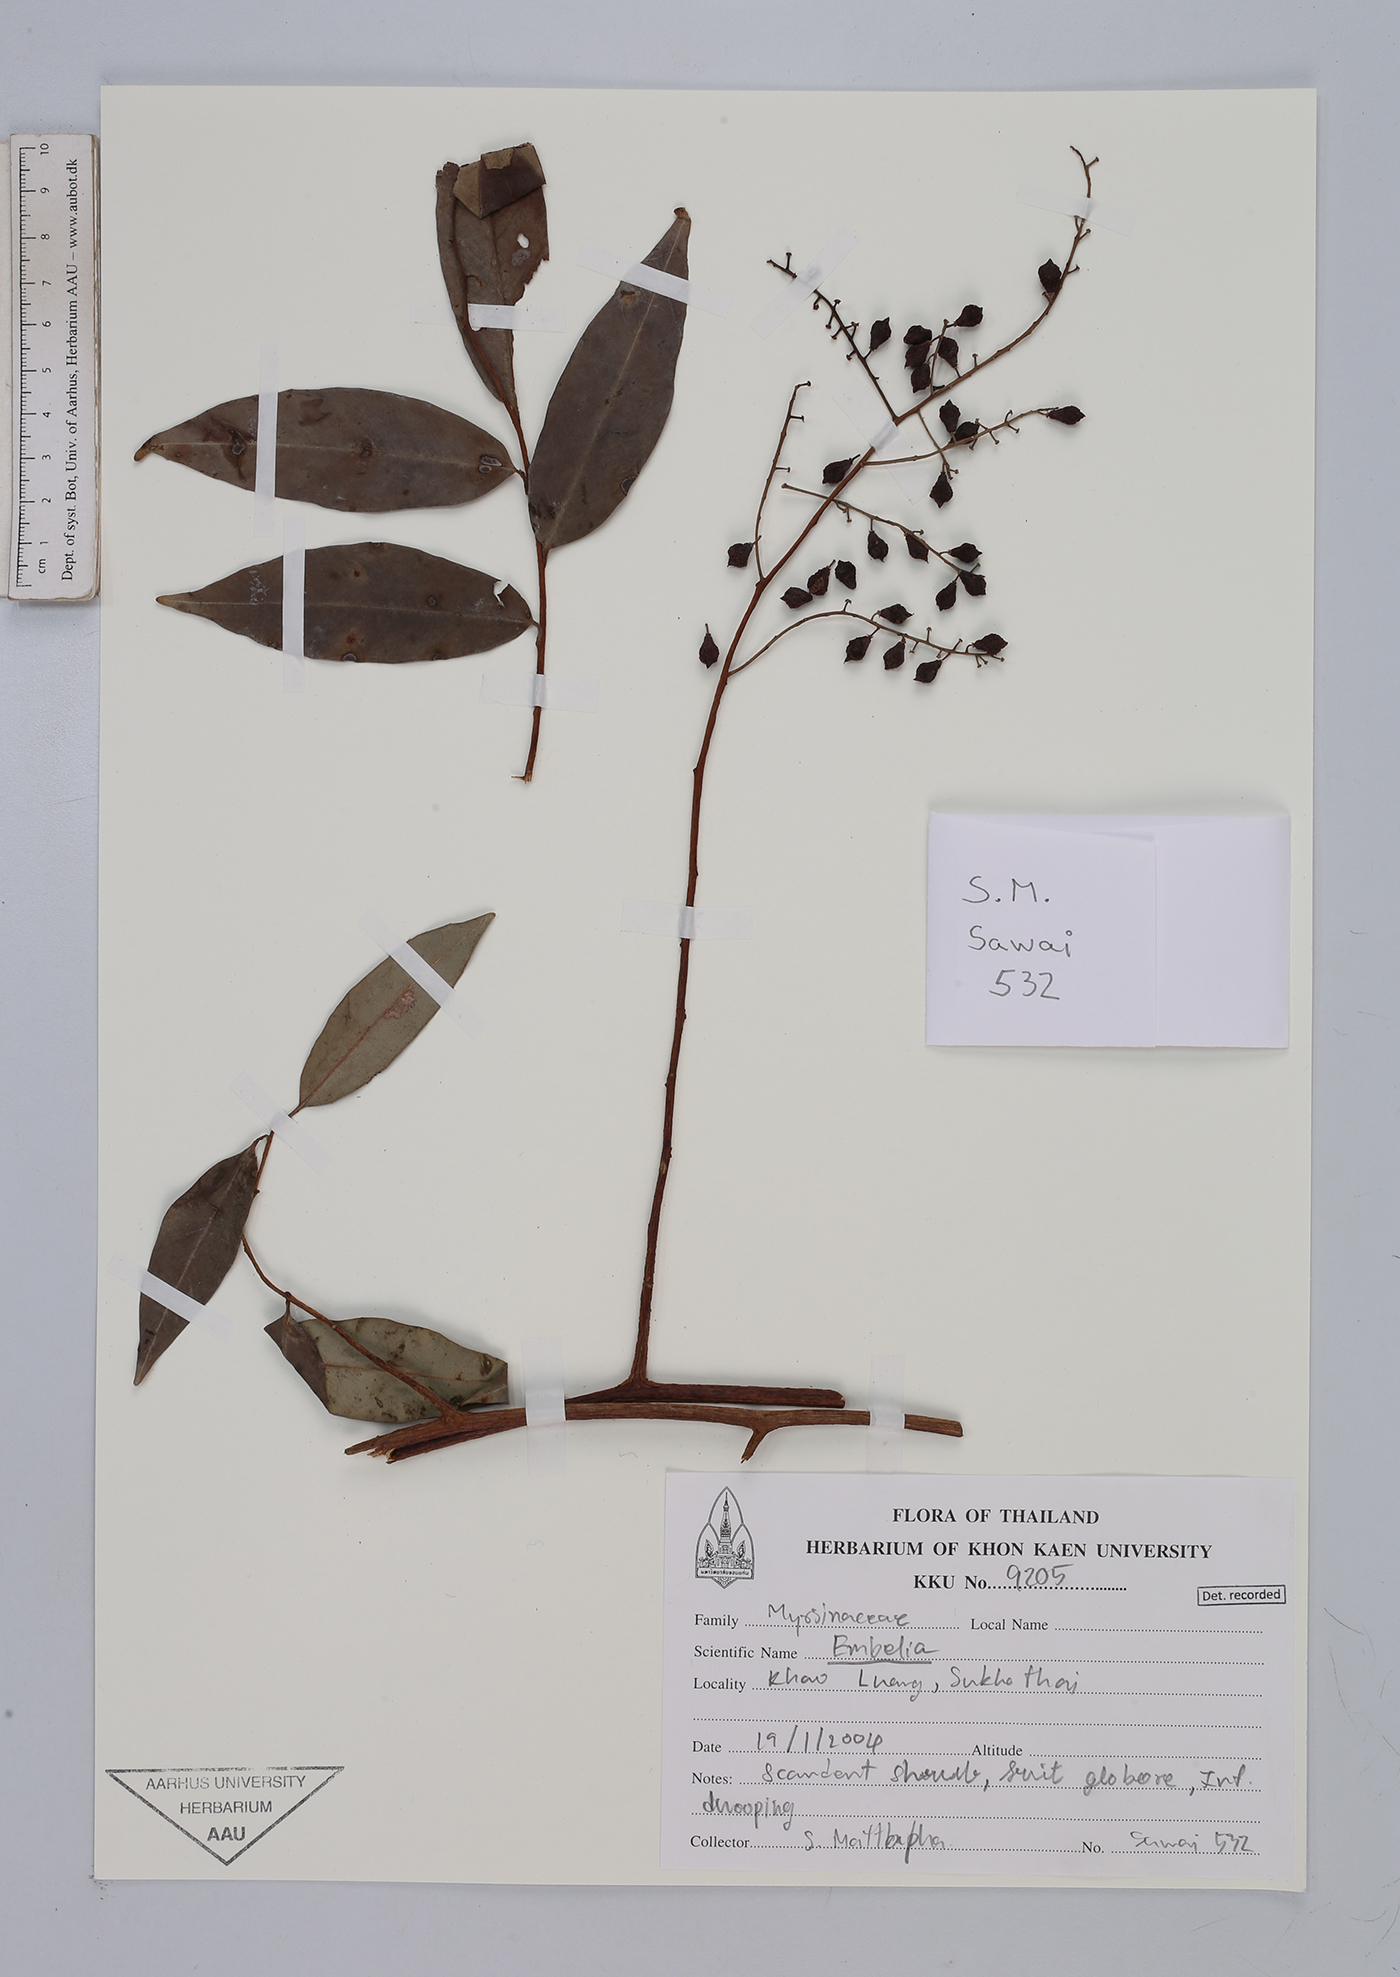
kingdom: Plantae
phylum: Tracheophyta
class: Magnoliopsida
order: Ericales
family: Primulaceae
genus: Embelia
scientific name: Embelia
